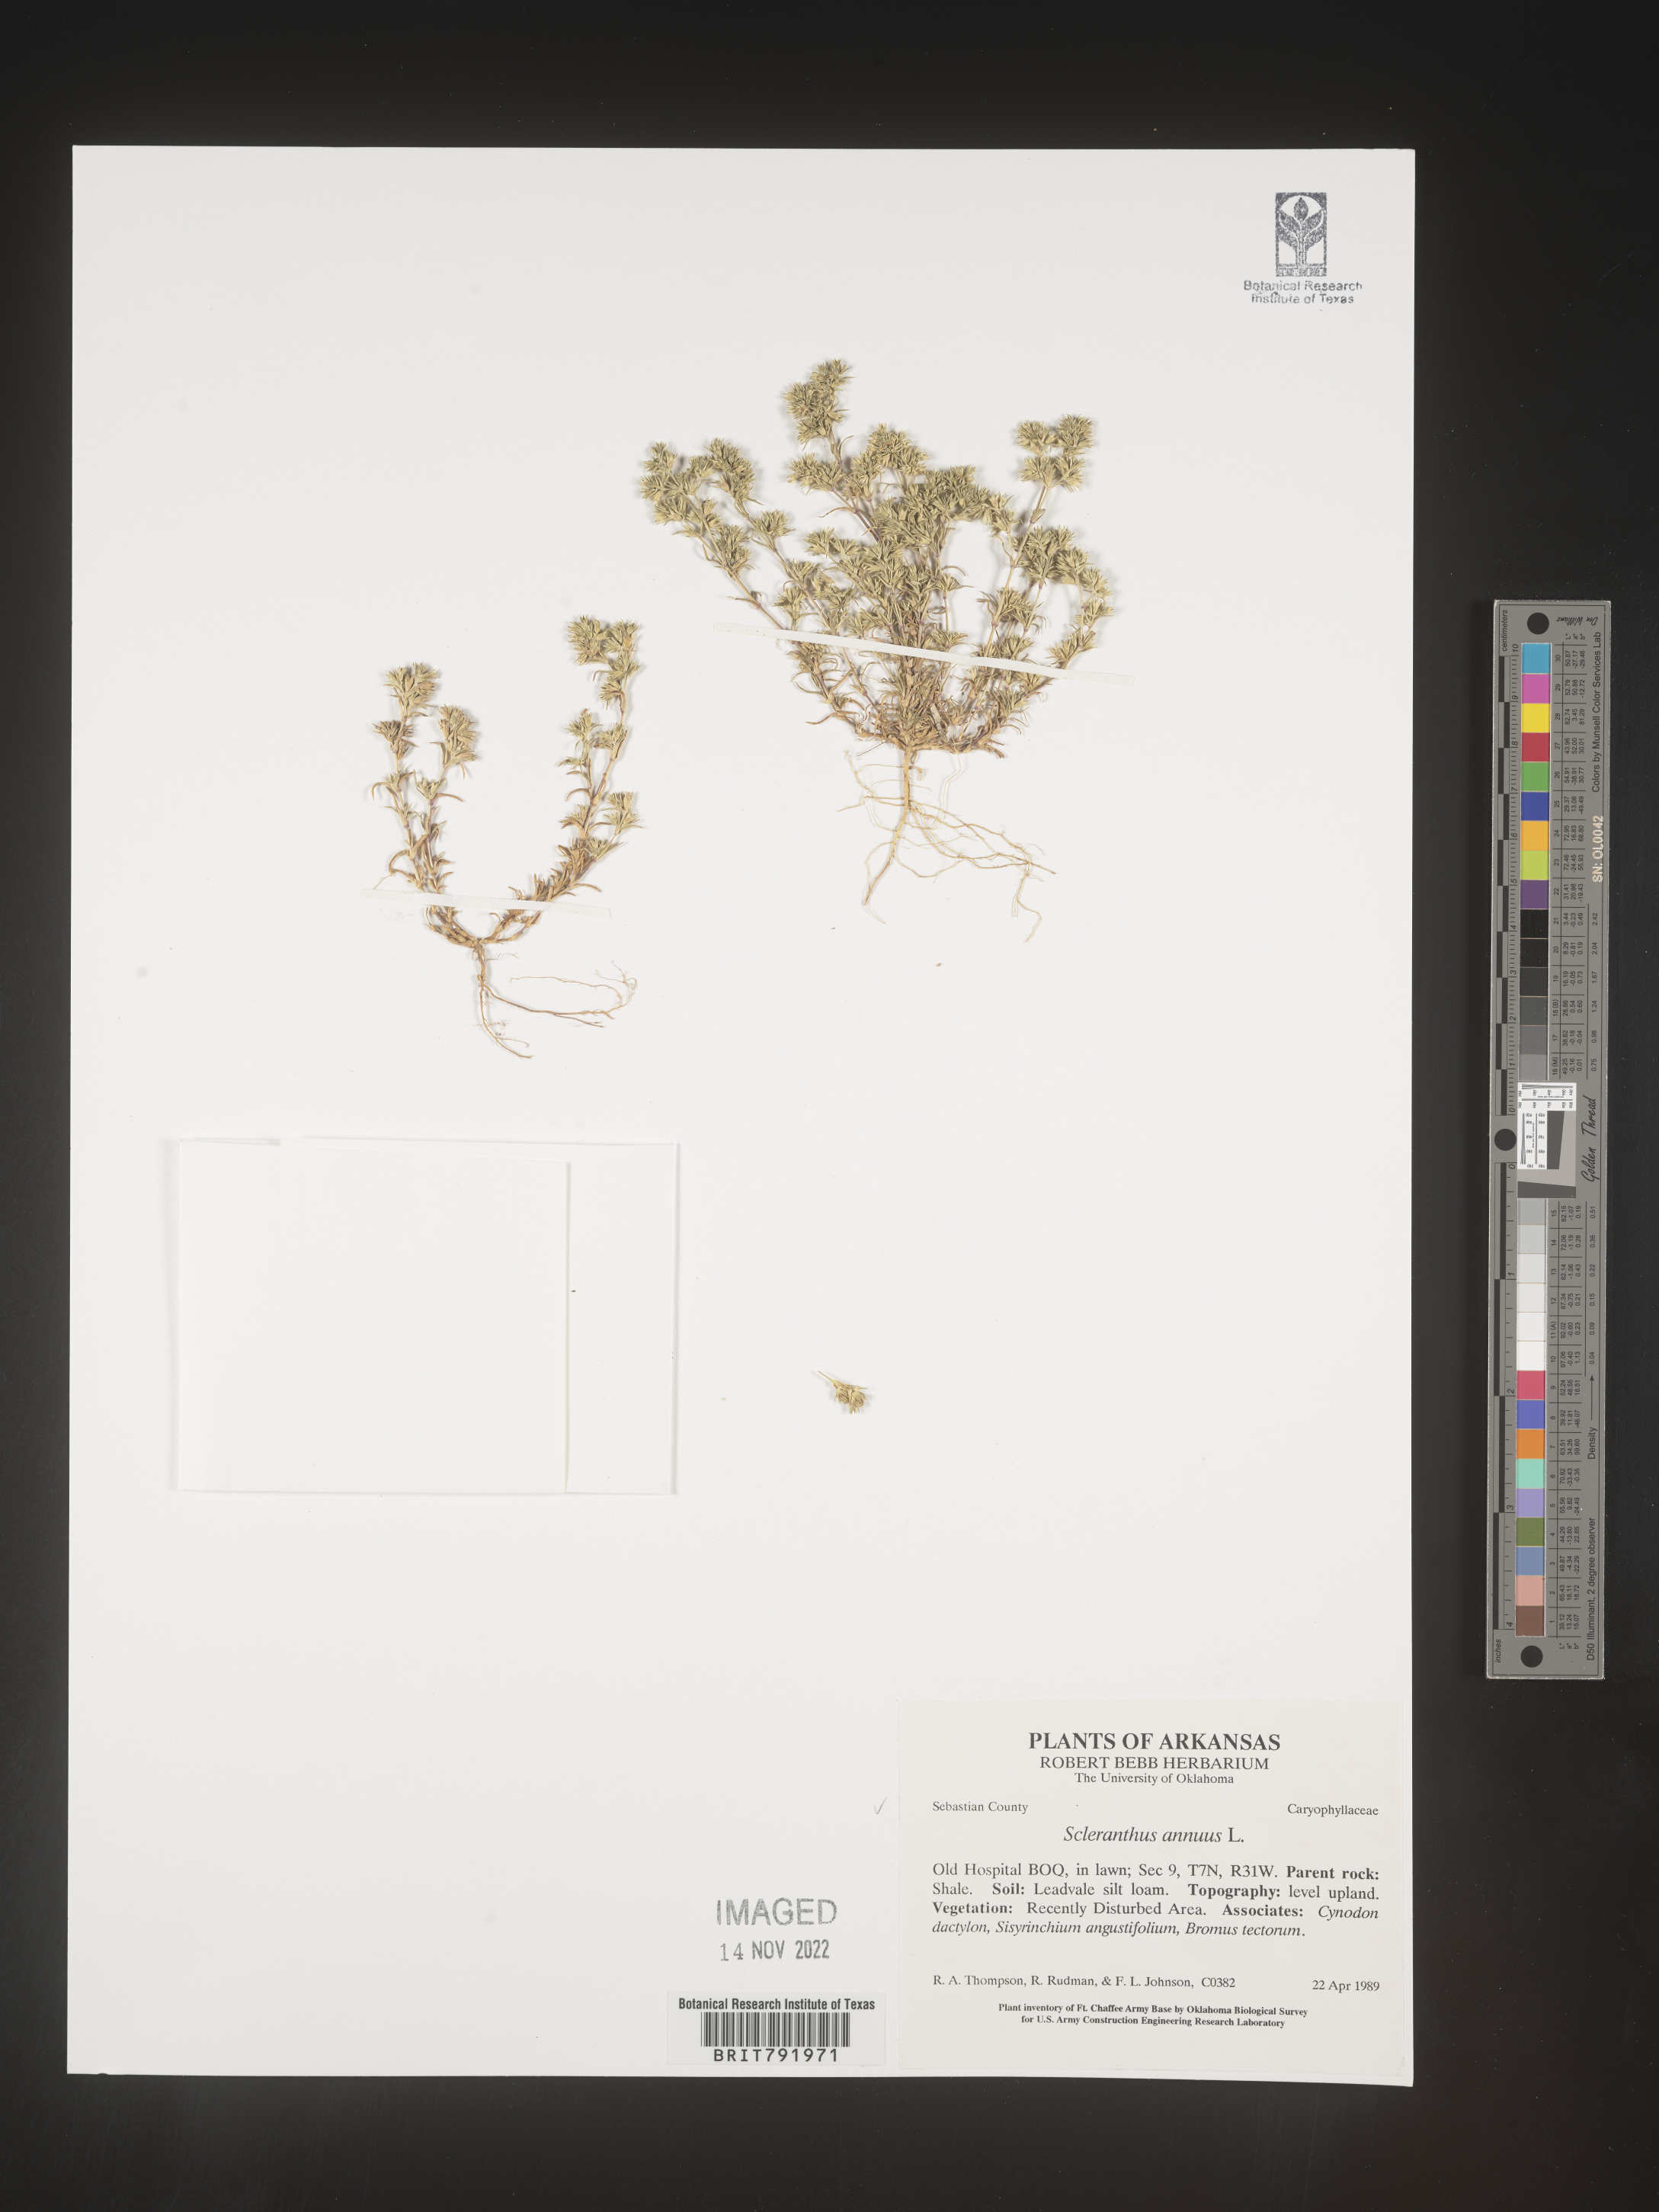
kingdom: Plantae
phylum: Tracheophyta
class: Magnoliopsida
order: Caryophyllales
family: Caryophyllaceae
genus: Scleranthus
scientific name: Scleranthus
